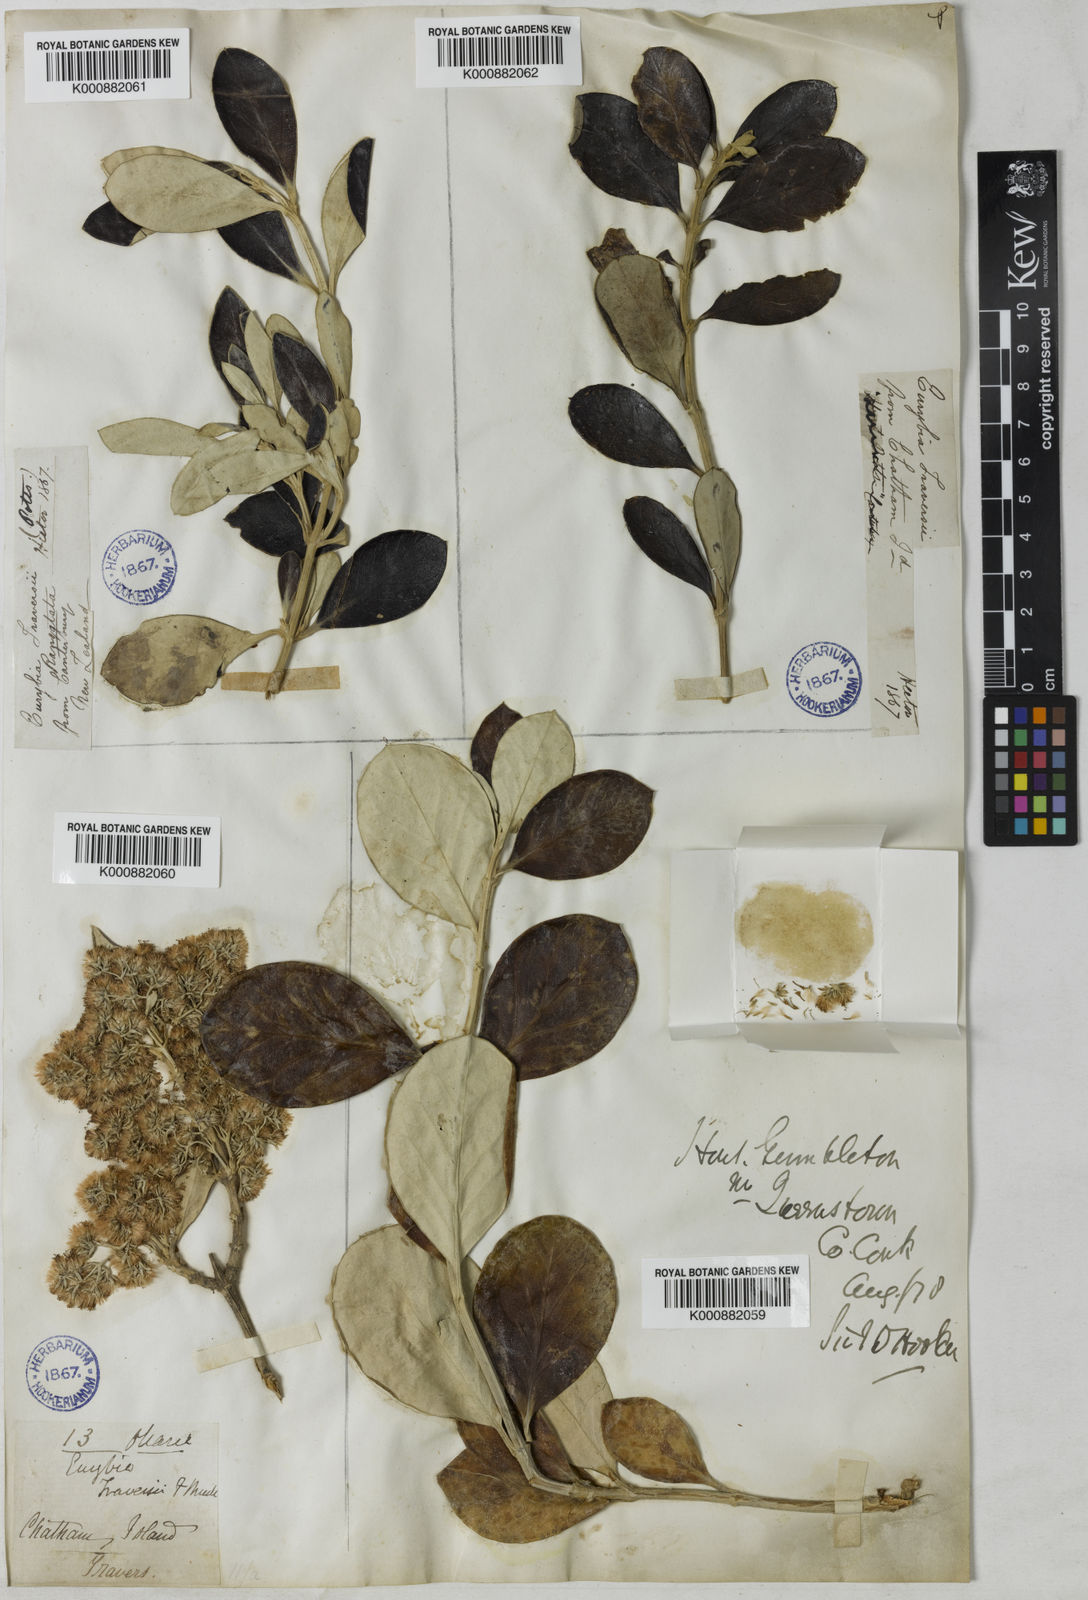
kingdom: Plantae
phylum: Tracheophyta
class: Magnoliopsida
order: Asterales
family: Asteraceae
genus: Olearia
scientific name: Olearia
